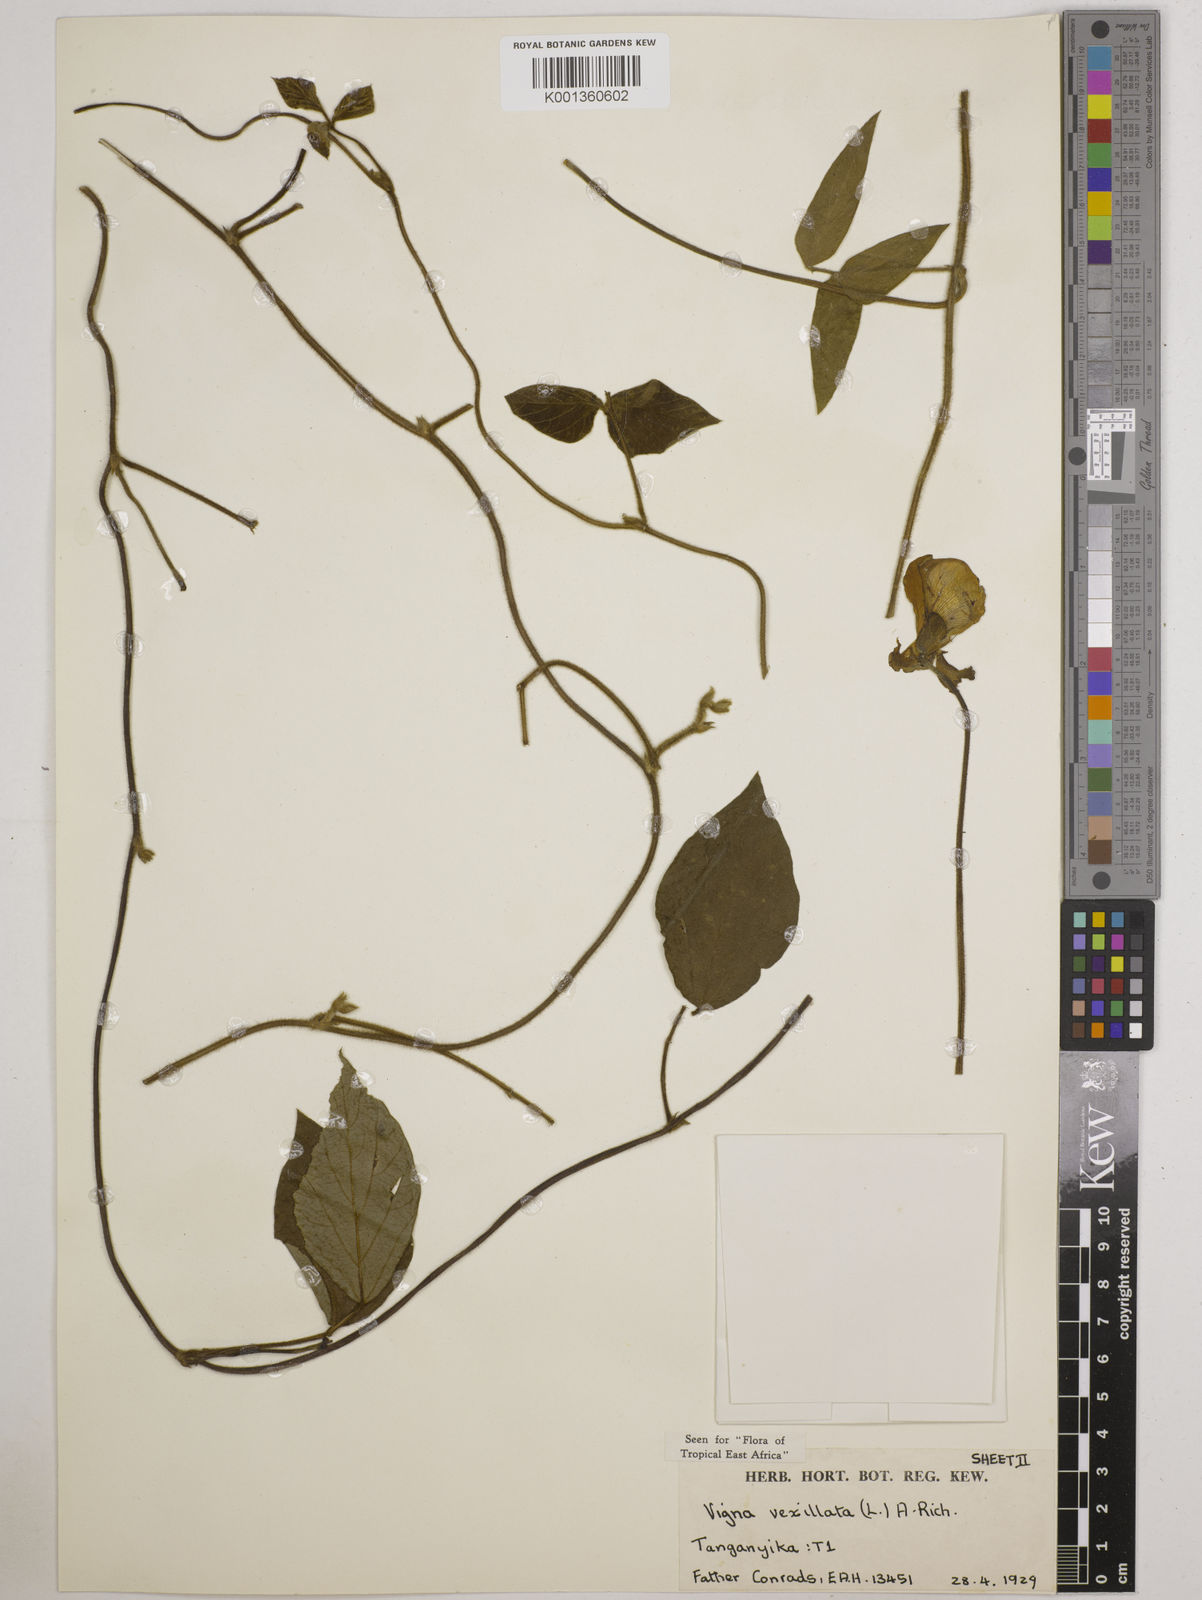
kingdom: Plantae
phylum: Tracheophyta
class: Magnoliopsida
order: Fabales
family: Fabaceae
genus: Vigna
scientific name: Vigna vexillata
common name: Zombi pea
